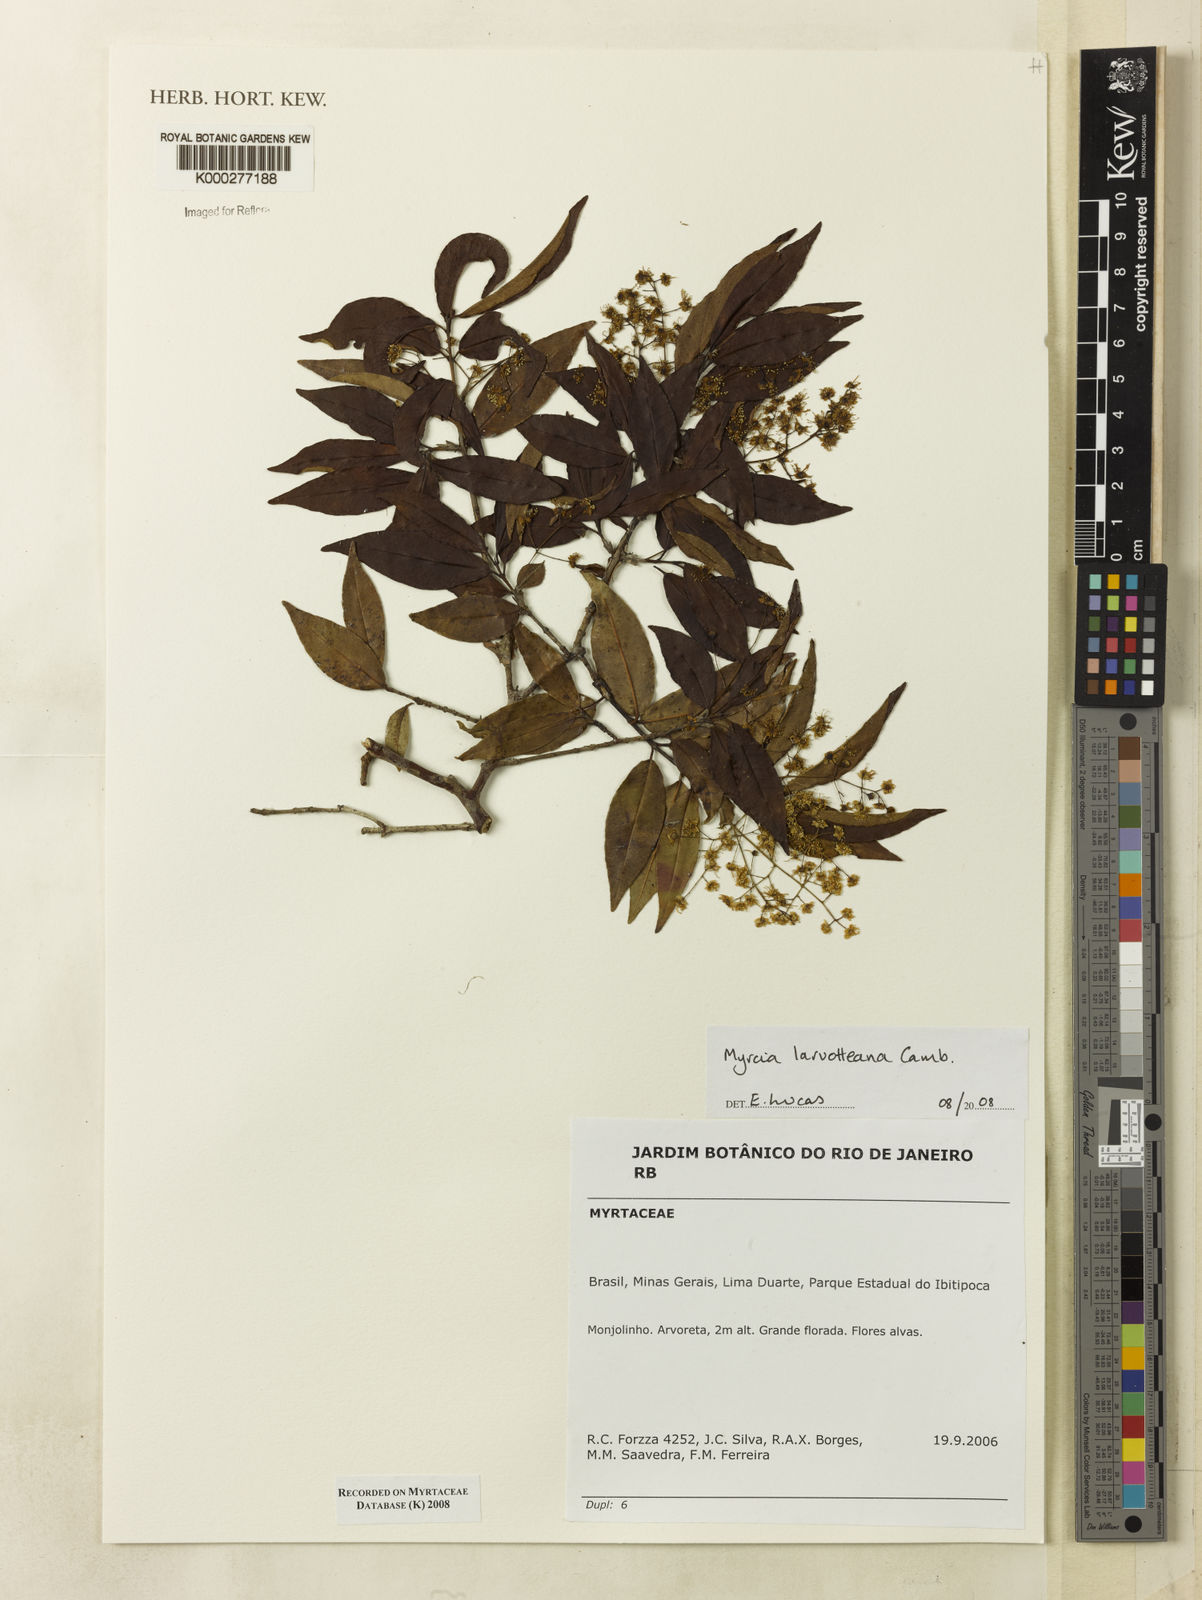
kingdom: Plantae
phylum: Tracheophyta
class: Magnoliopsida
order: Myrtales
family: Myrtaceae
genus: Myrcia
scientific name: Myrcia laruotteana
